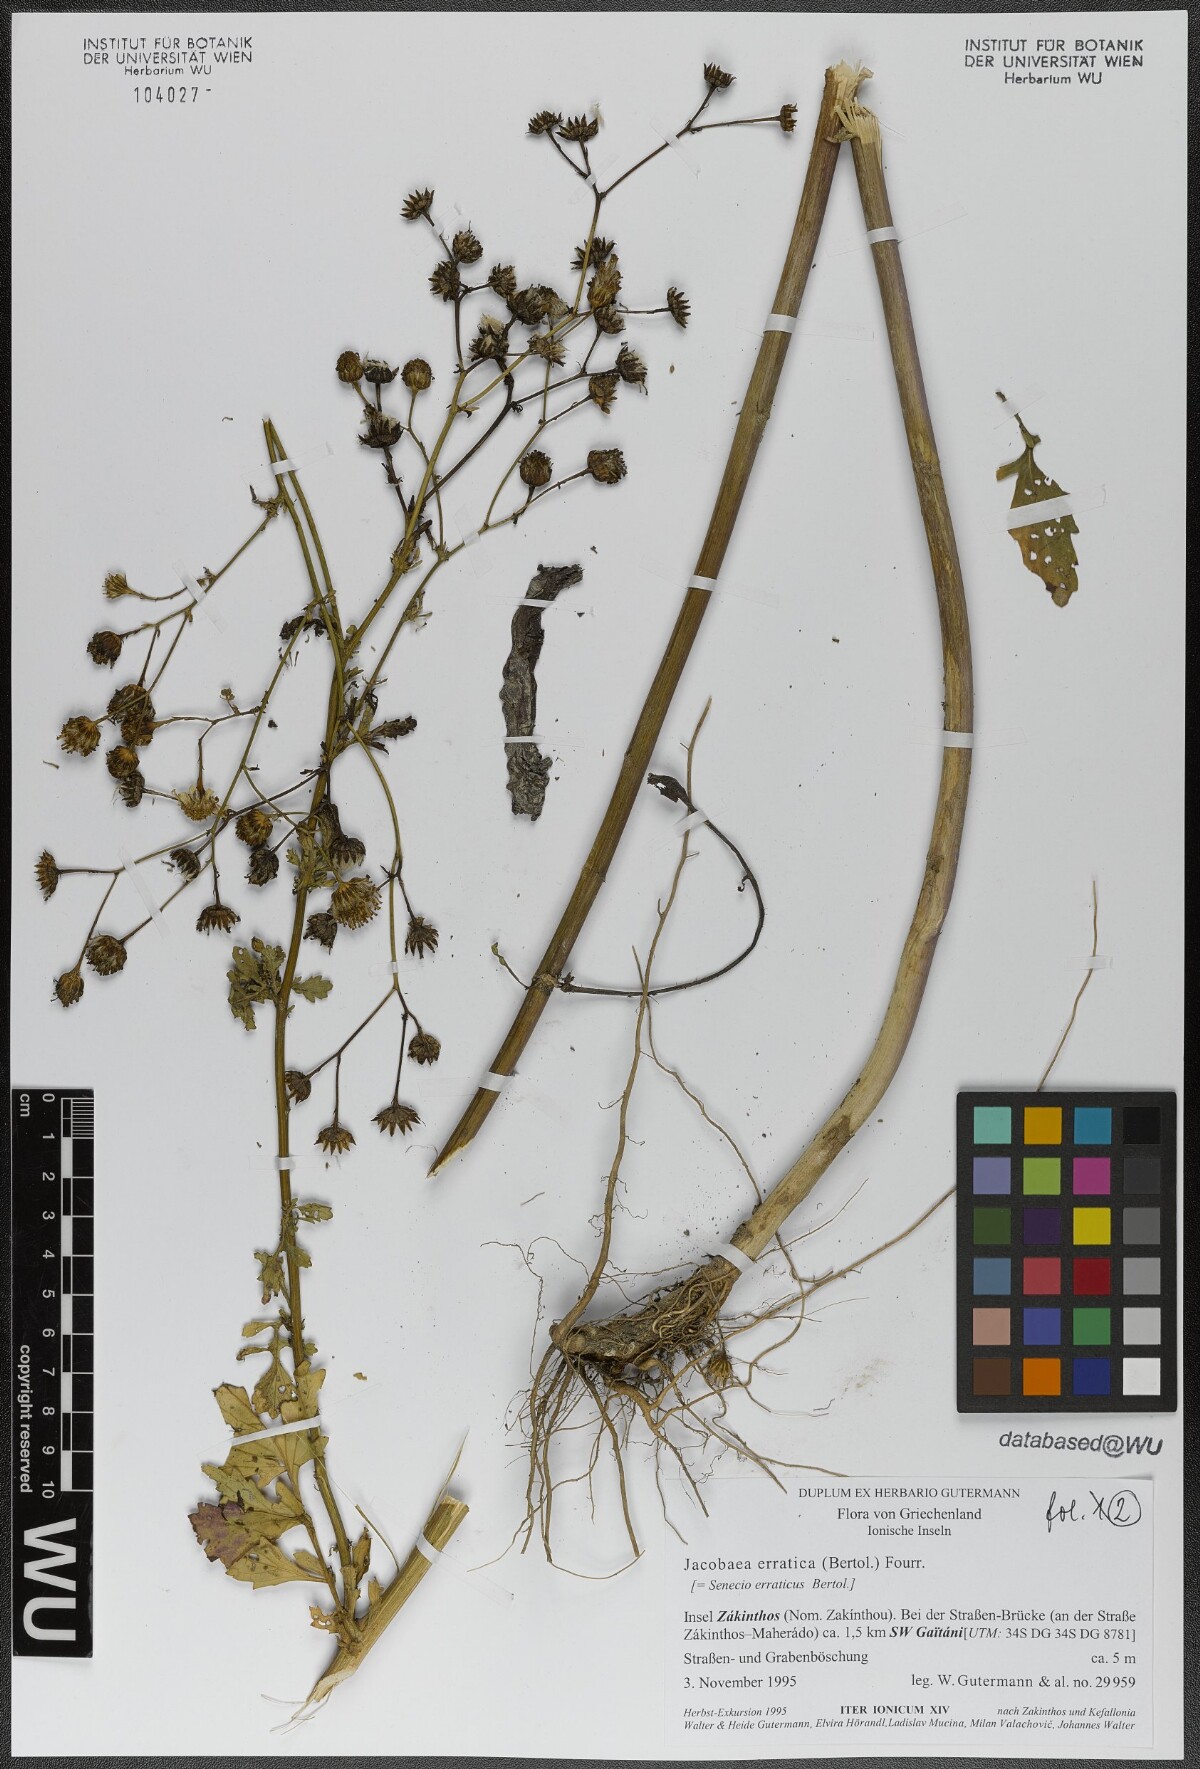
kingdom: Plantae
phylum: Tracheophyta
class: Magnoliopsida
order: Asterales
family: Asteraceae
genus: Jacobaea
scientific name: Jacobaea erratica
